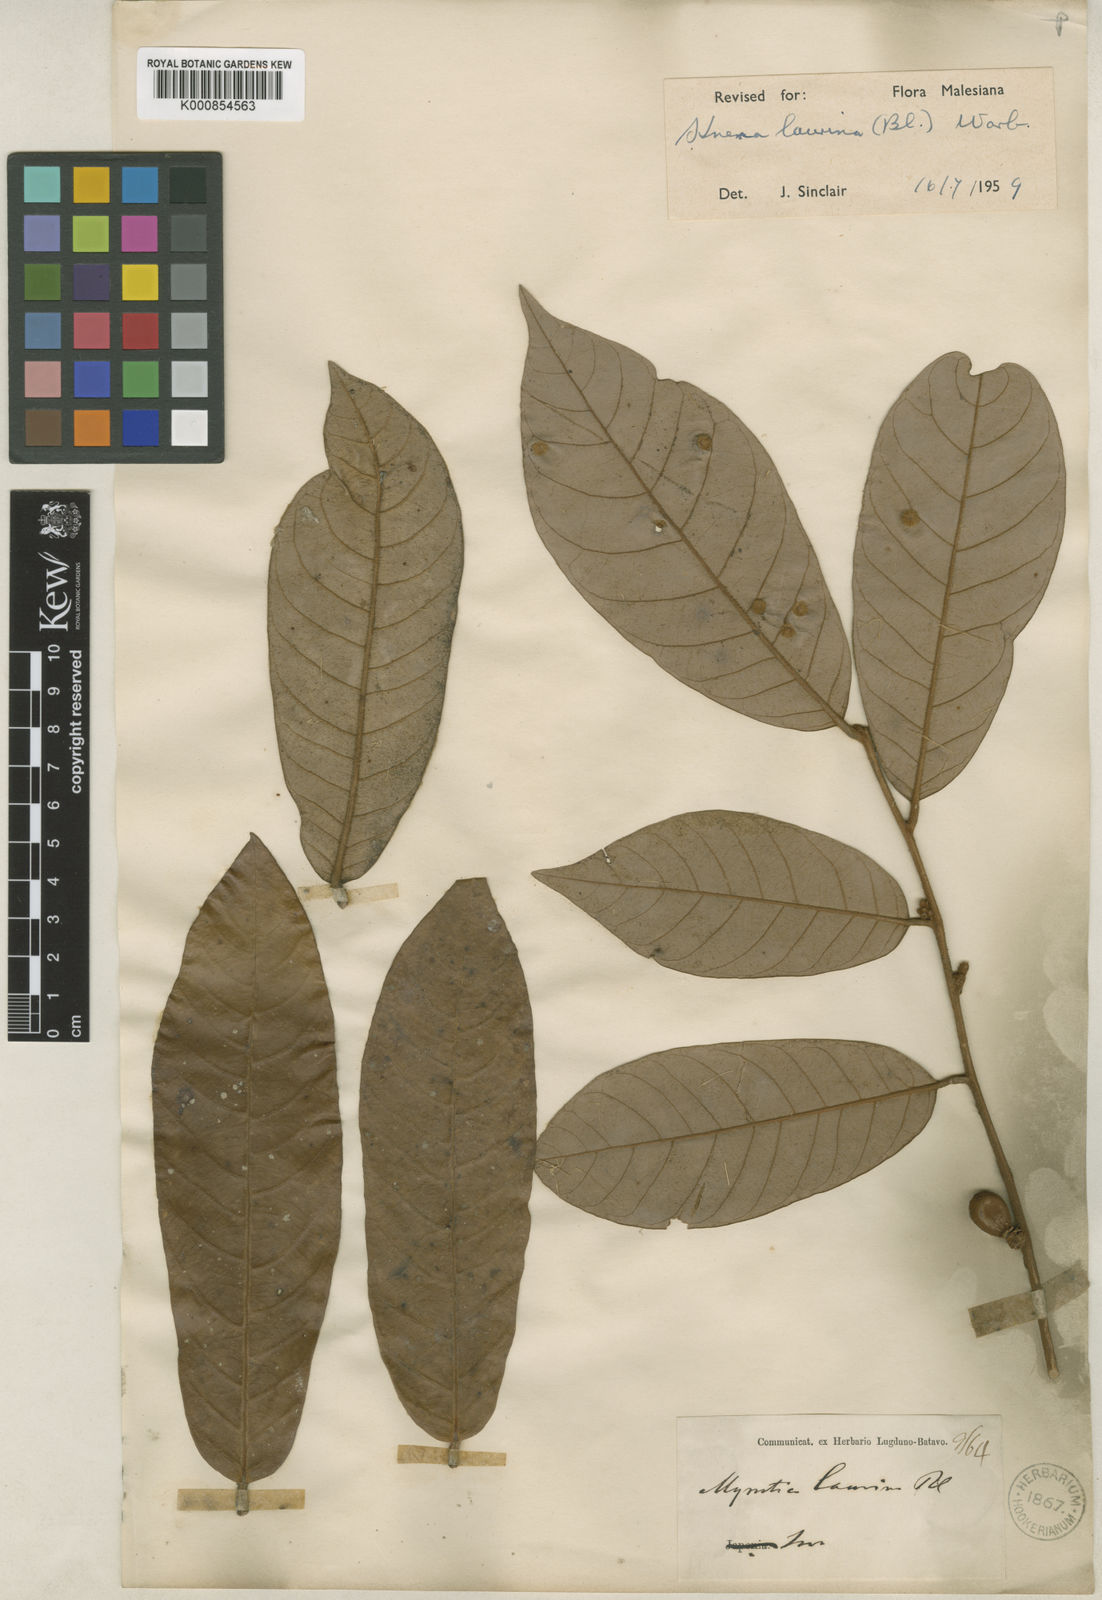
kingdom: Plantae
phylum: Tracheophyta
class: Magnoliopsida
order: Magnoliales
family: Myristicaceae
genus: Knema
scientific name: Knema laurina
